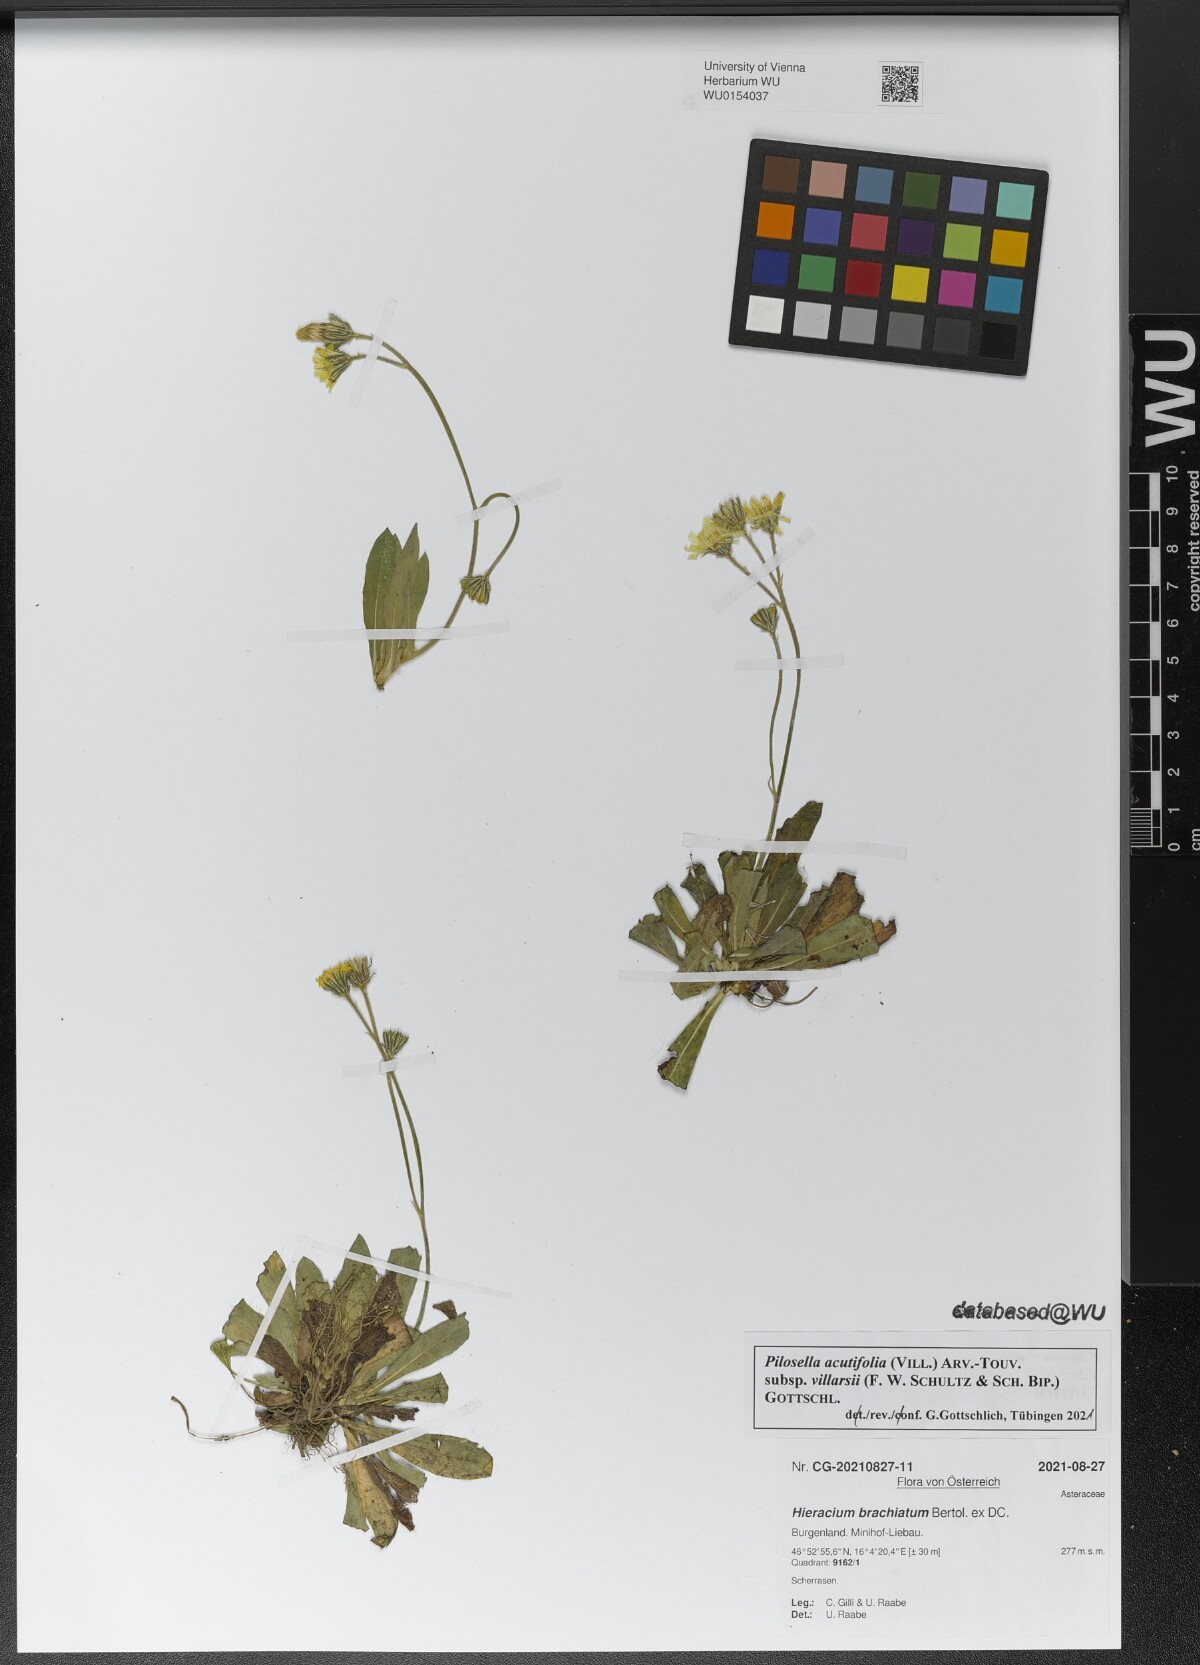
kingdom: Plantae
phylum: Tracheophyta
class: Magnoliopsida
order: Asterales
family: Asteraceae
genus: Pilosella
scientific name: Pilosella acutifolia
